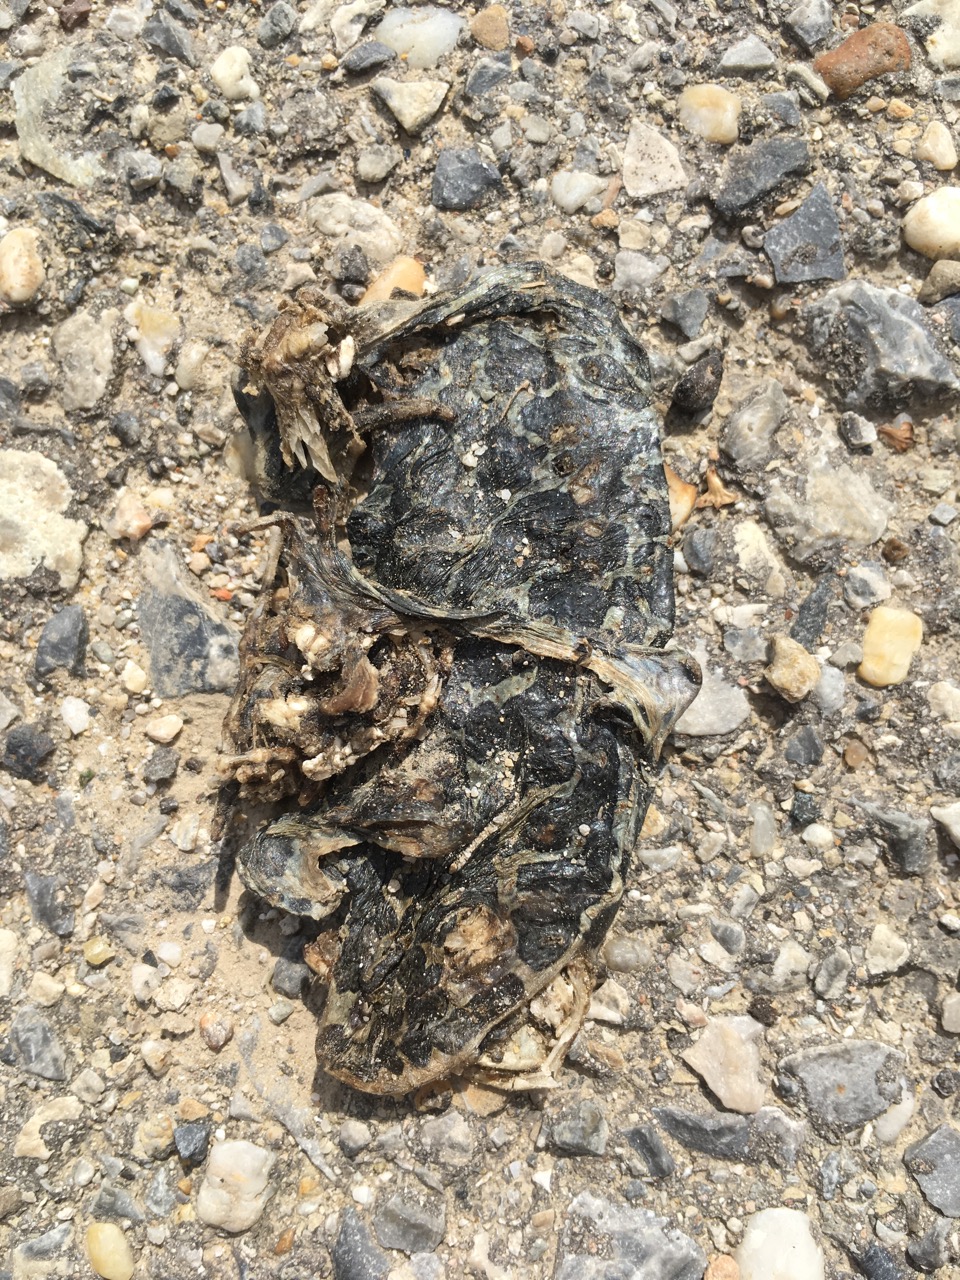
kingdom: Animalia
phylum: Chordata
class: Amphibia
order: Anura
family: Bufonidae
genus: Bufotes
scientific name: Bufotes viridis
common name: European green toad
